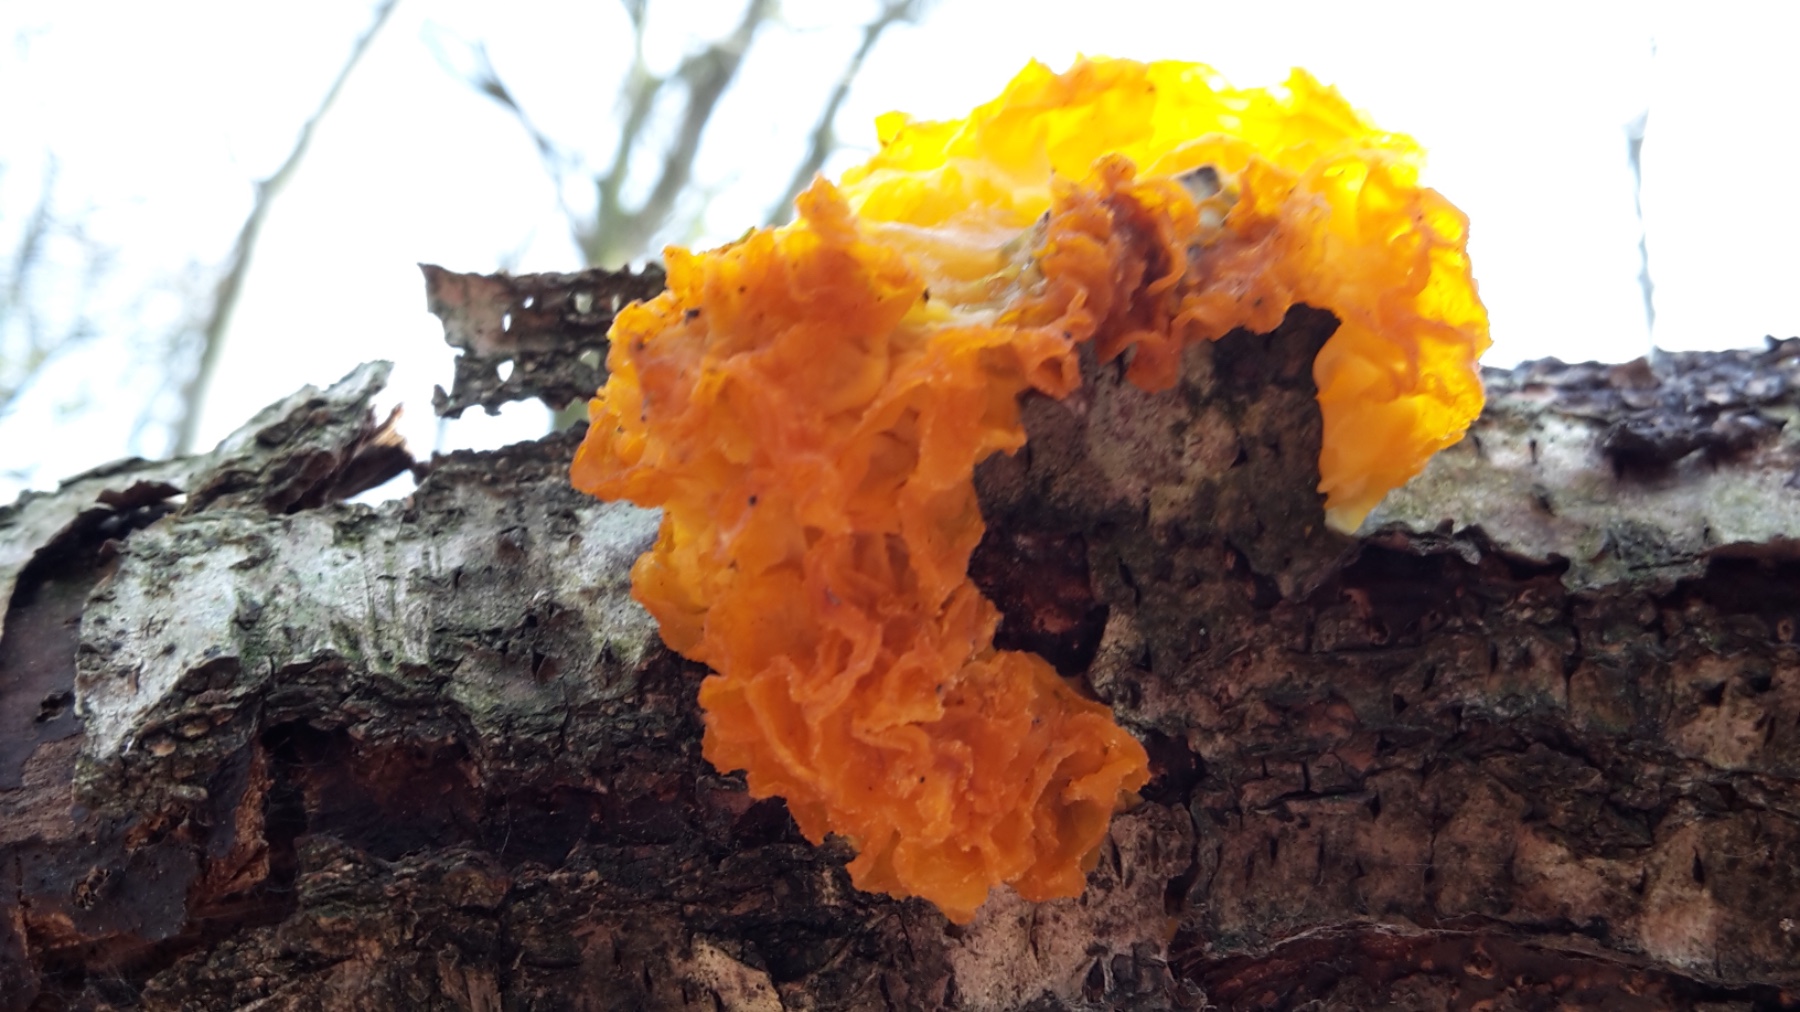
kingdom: Fungi
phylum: Basidiomycota
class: Tremellomycetes
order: Tremellales
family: Tremellaceae
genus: Tremella
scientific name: Tremella mesenterica
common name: gul bævresvamp
